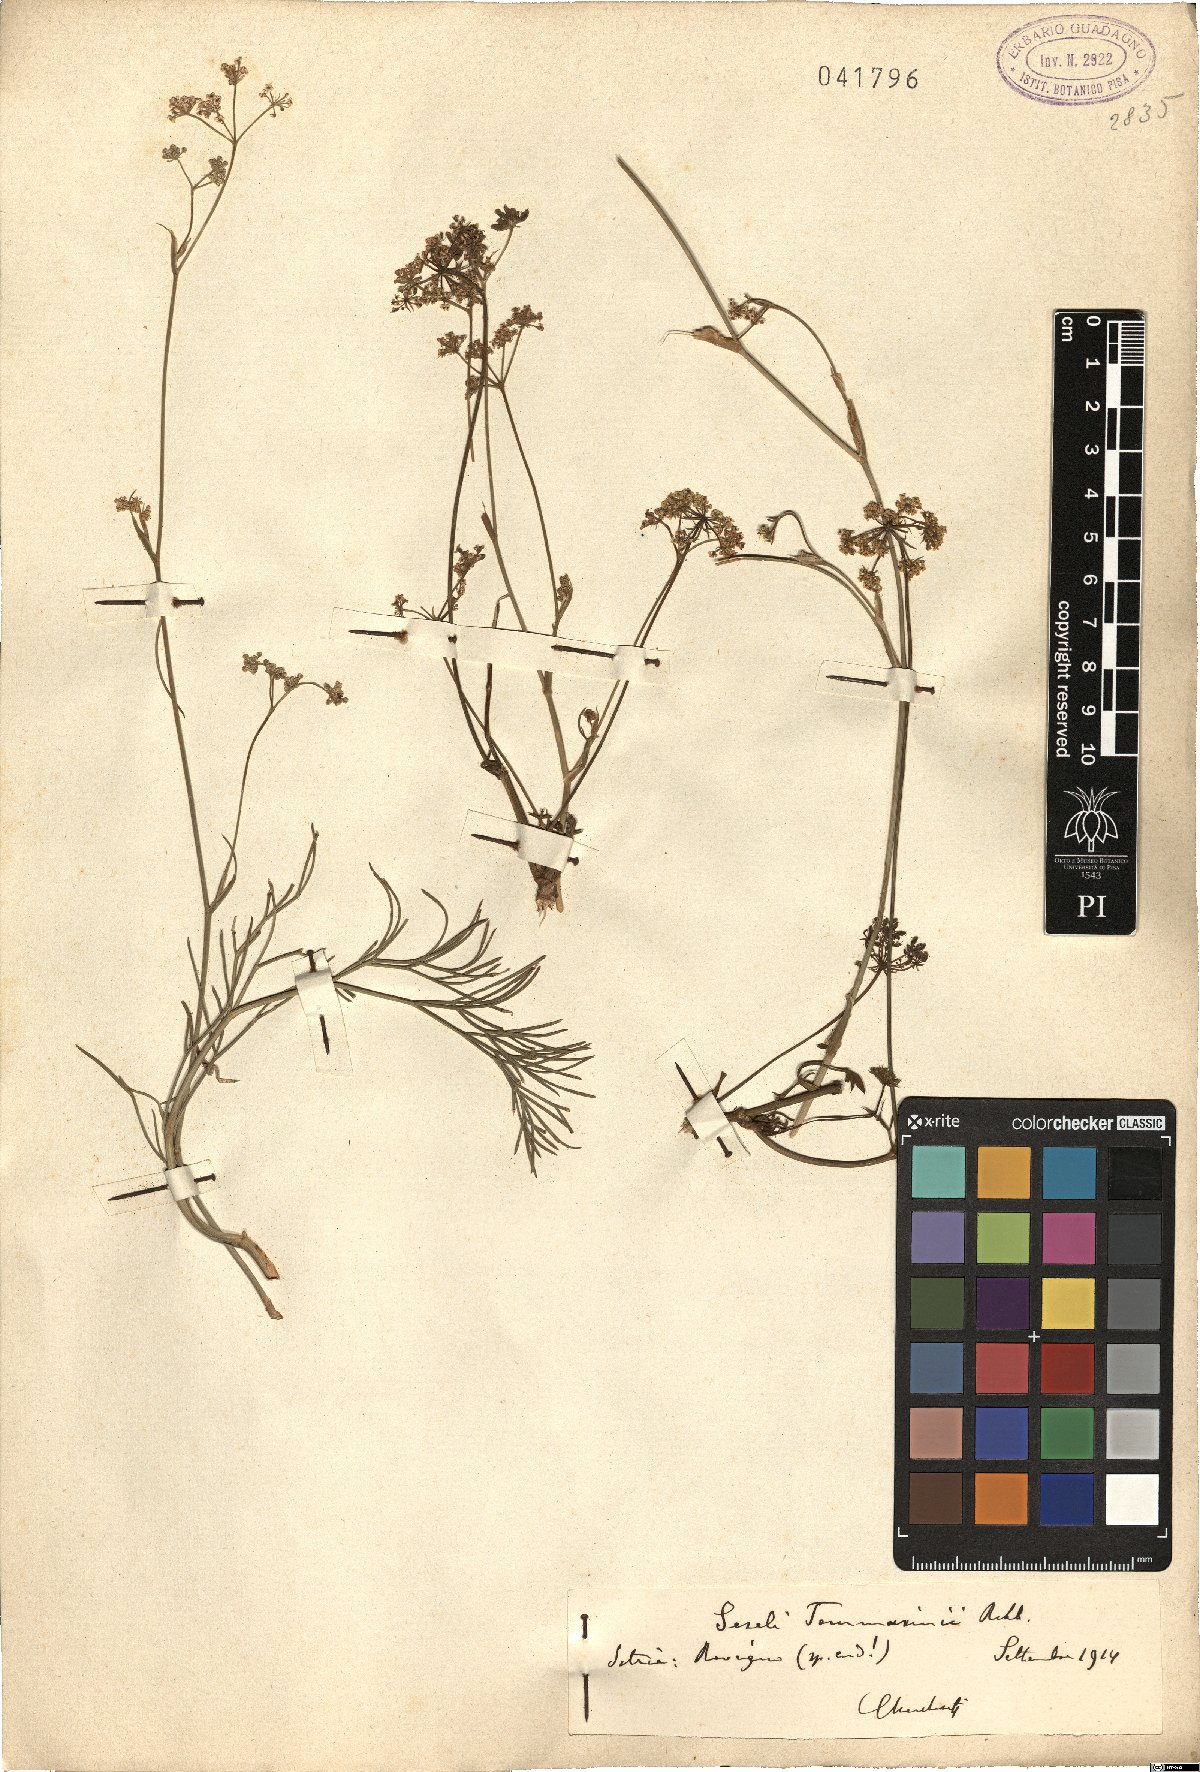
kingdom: Plantae
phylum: Tracheophyta
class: Magnoliopsida
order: Apiales
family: Apiaceae
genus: Seseli
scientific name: Seseli montanum
